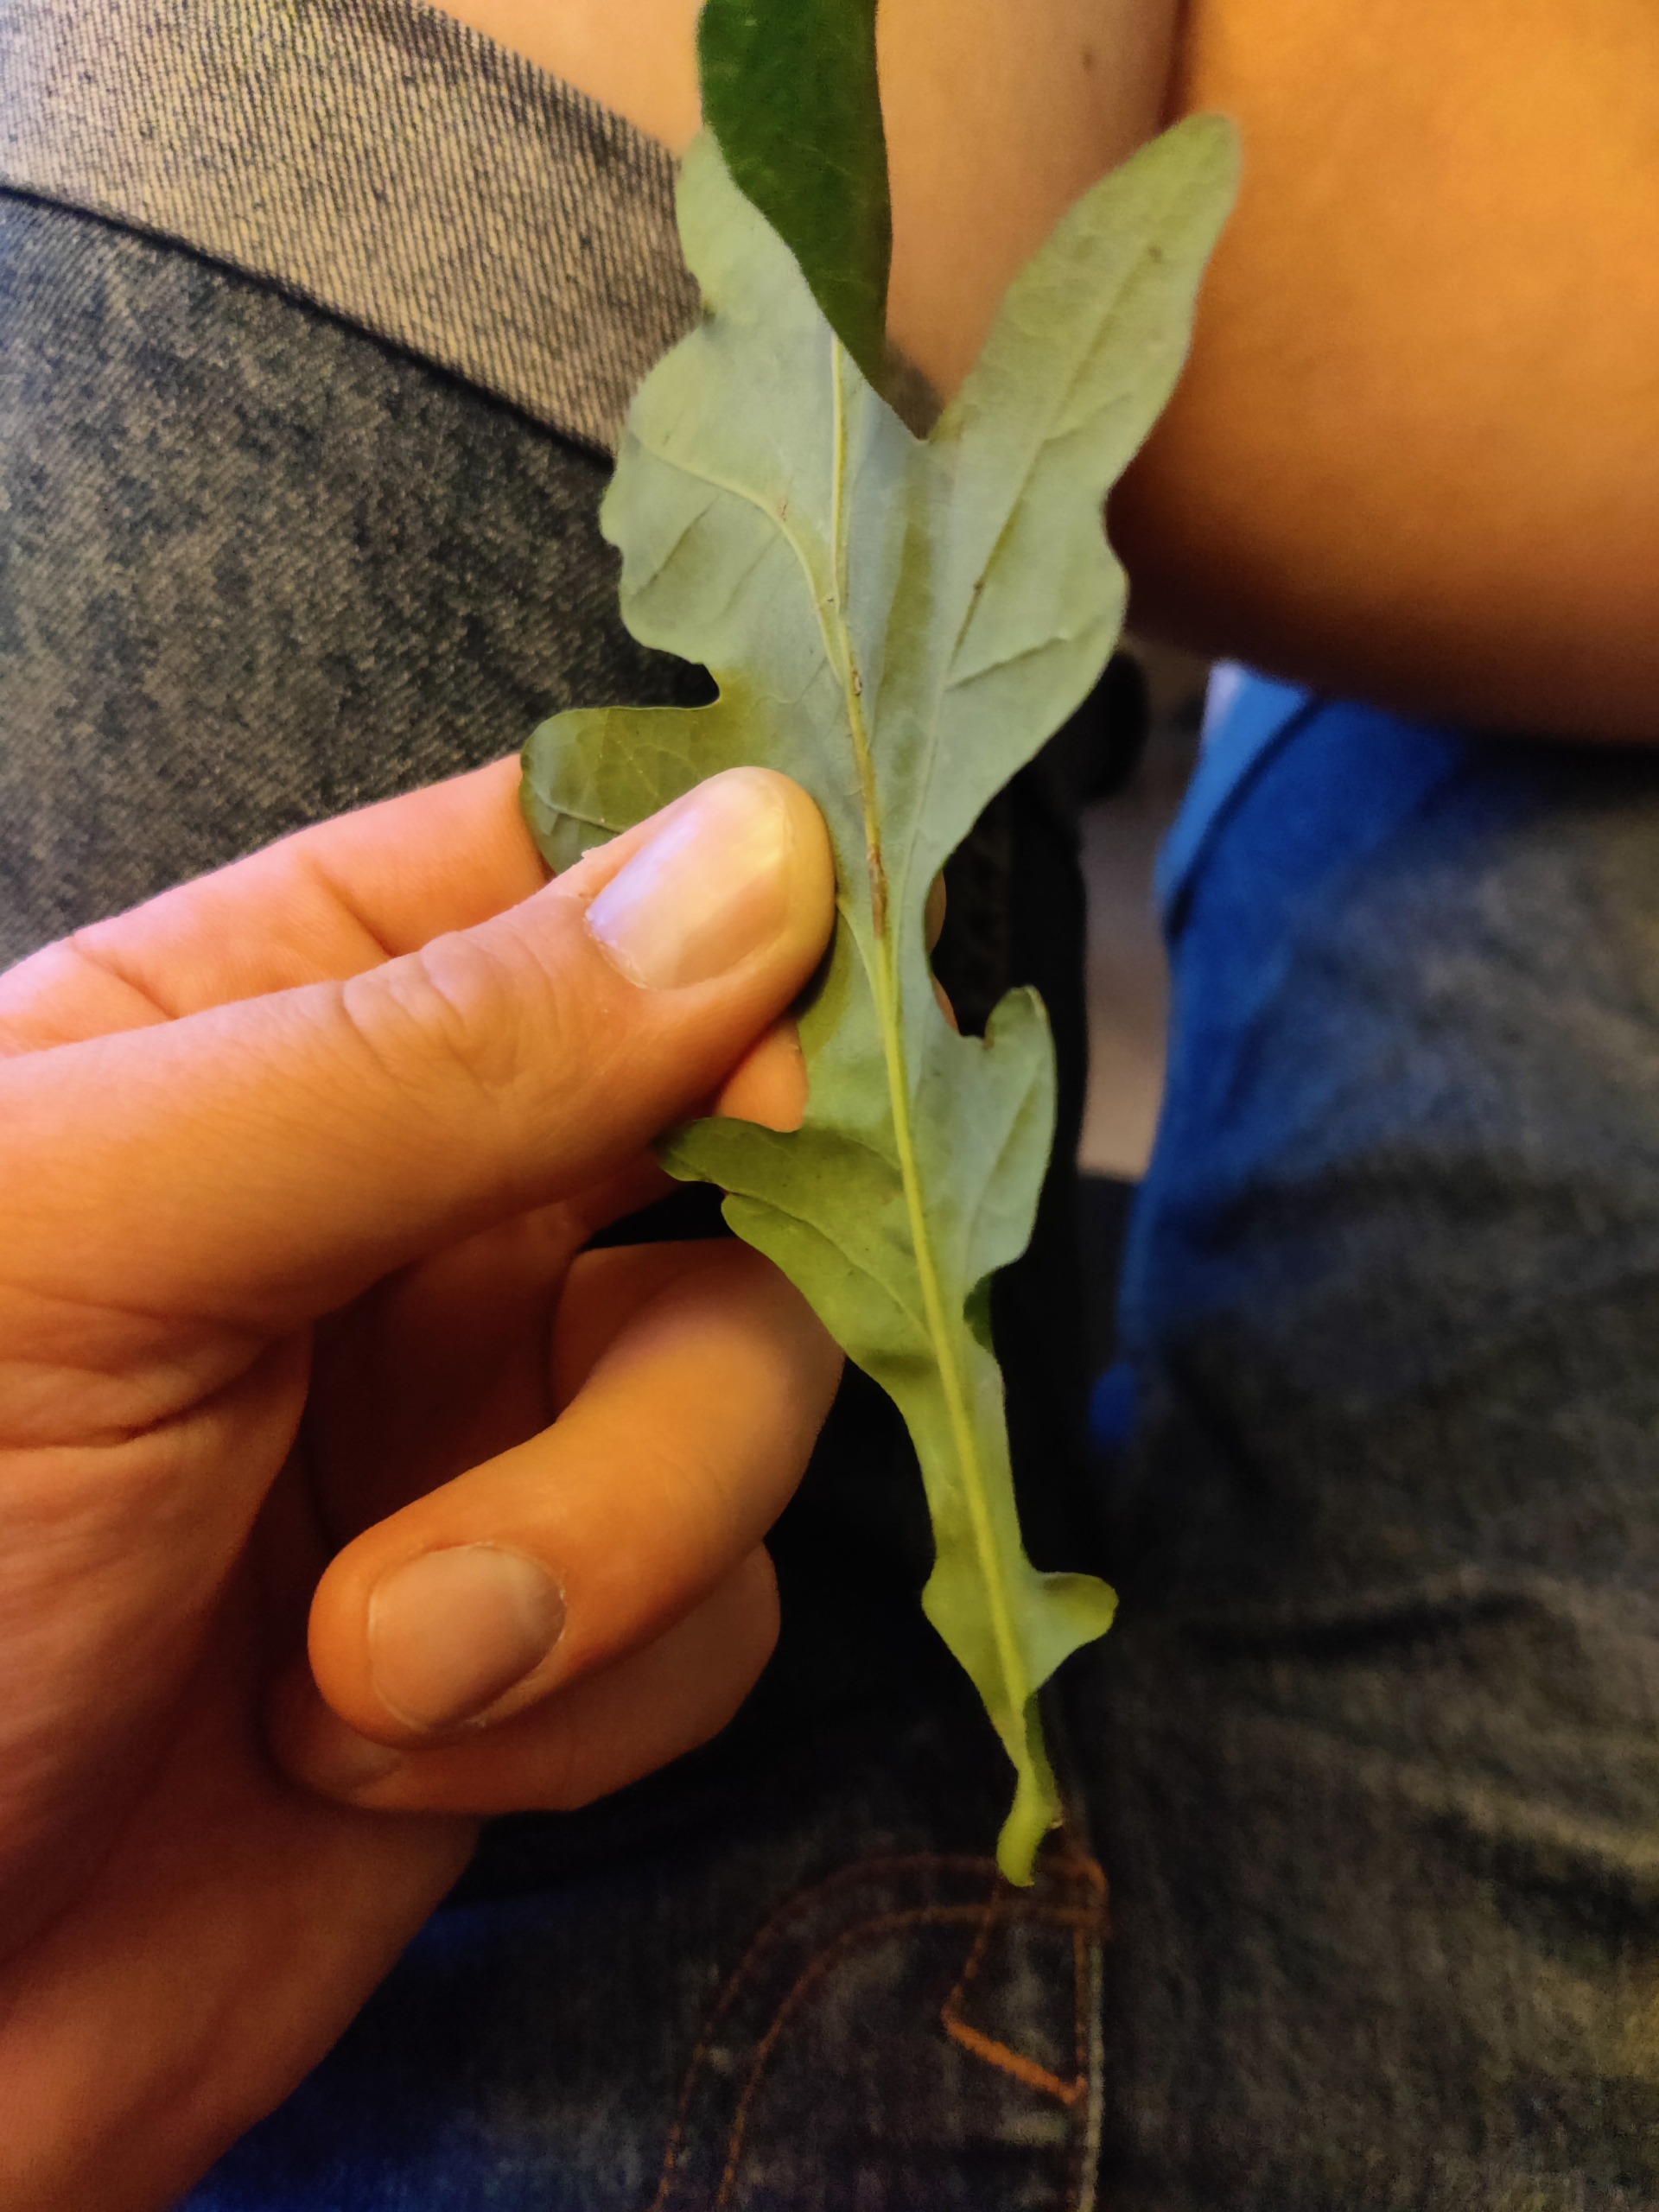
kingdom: Plantae
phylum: Tracheophyta
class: Magnoliopsida
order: Fagales
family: Fagaceae
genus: Quercus
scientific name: Quercus robur
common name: Stilk-eg/almindelig eg
